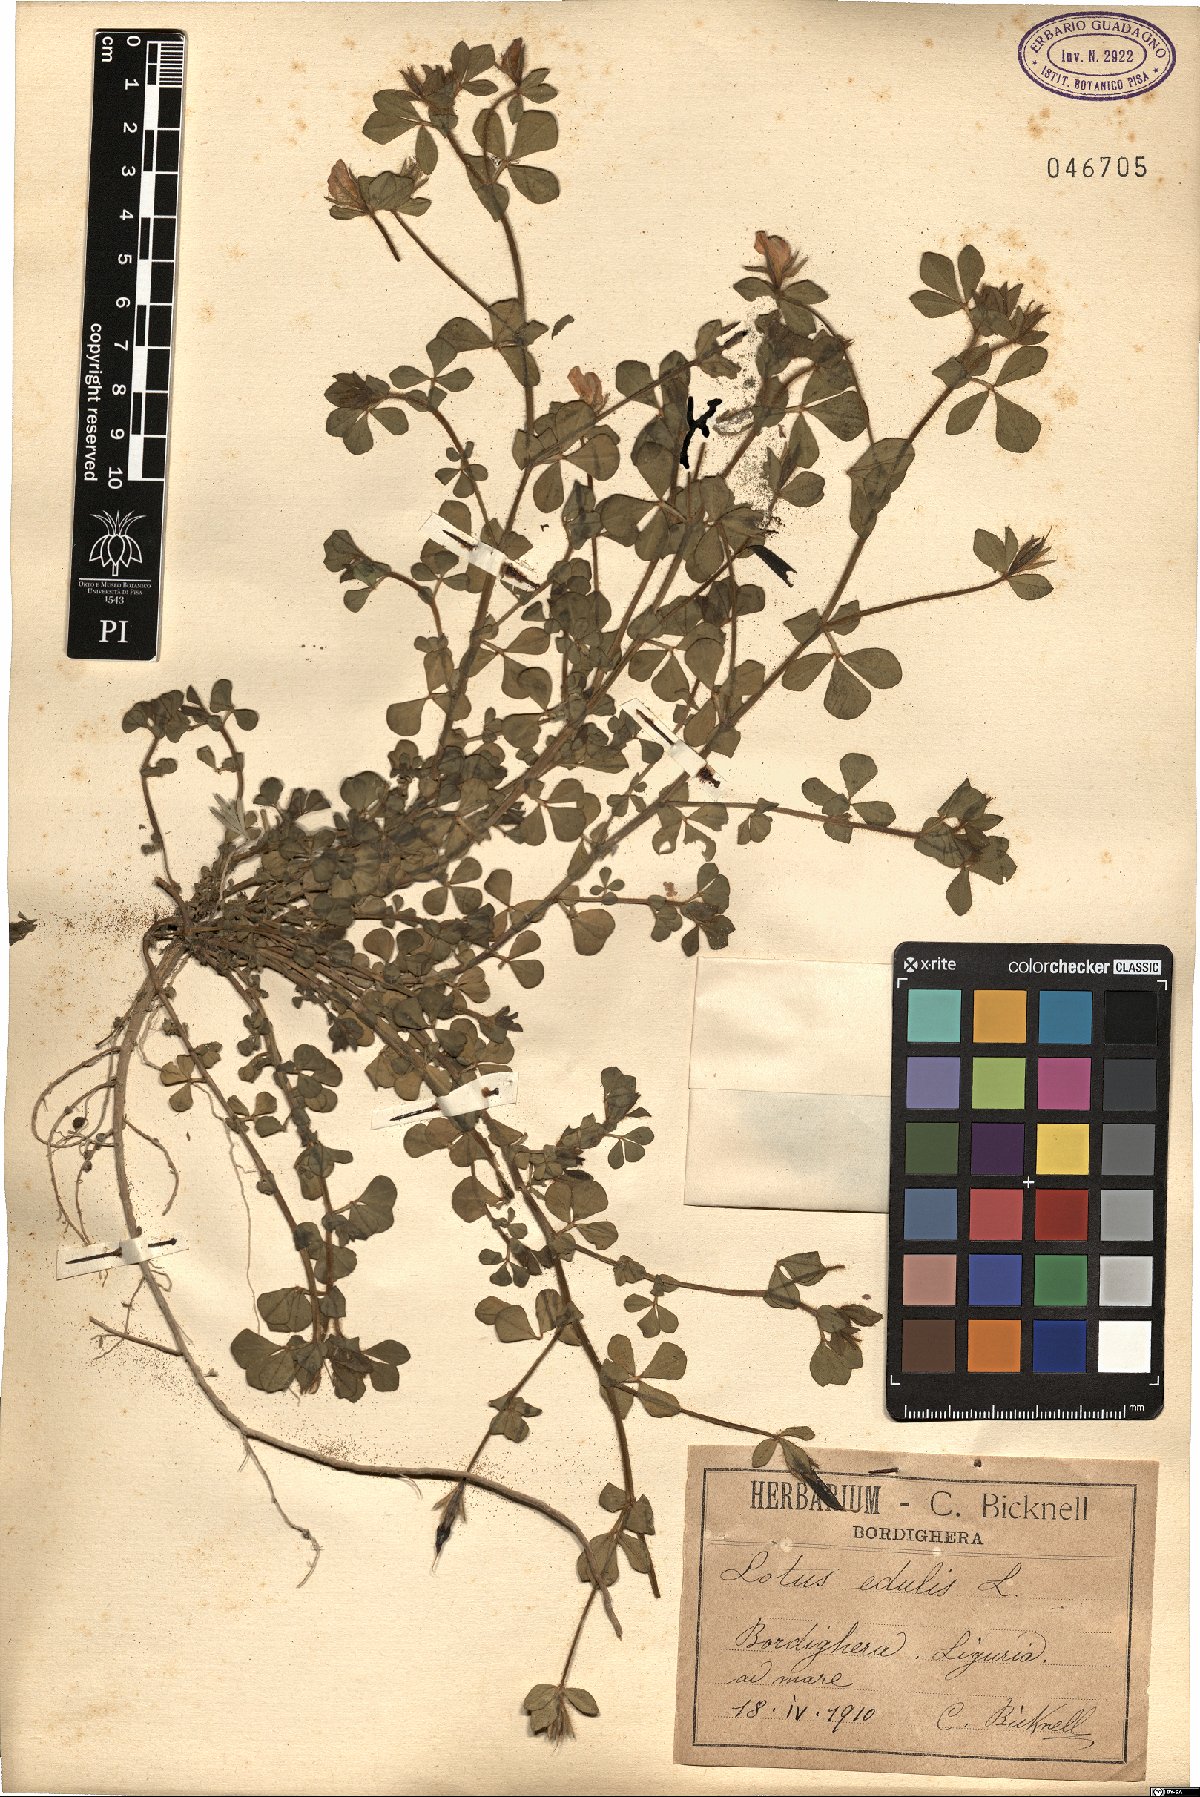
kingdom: Plantae
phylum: Tracheophyta
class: Magnoliopsida
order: Fabales
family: Fabaceae
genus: Lotus
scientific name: Lotus edulis
